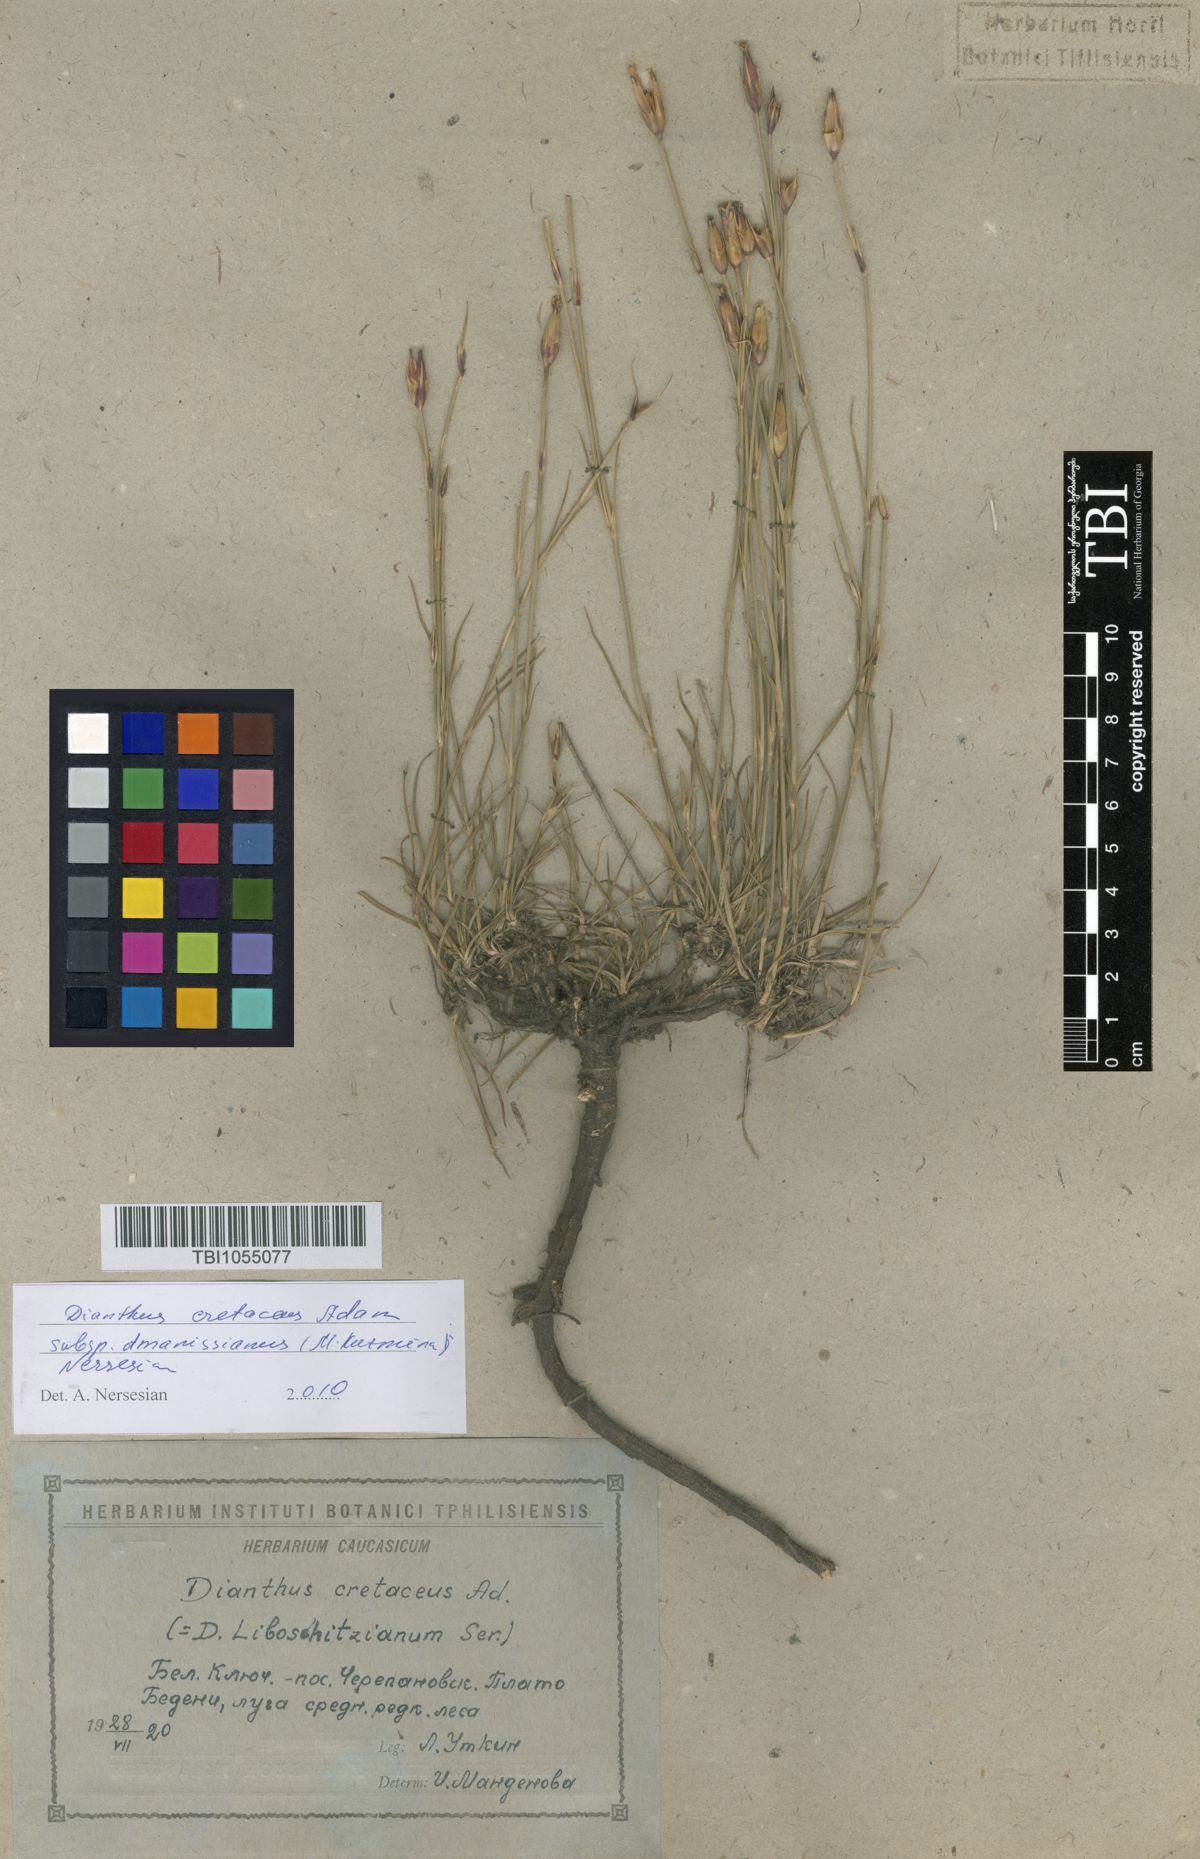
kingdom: Plantae
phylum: Tracheophyta
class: Magnoliopsida
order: Caryophyllales
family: Caryophyllaceae
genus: Dianthus
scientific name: Dianthus cretaceus
